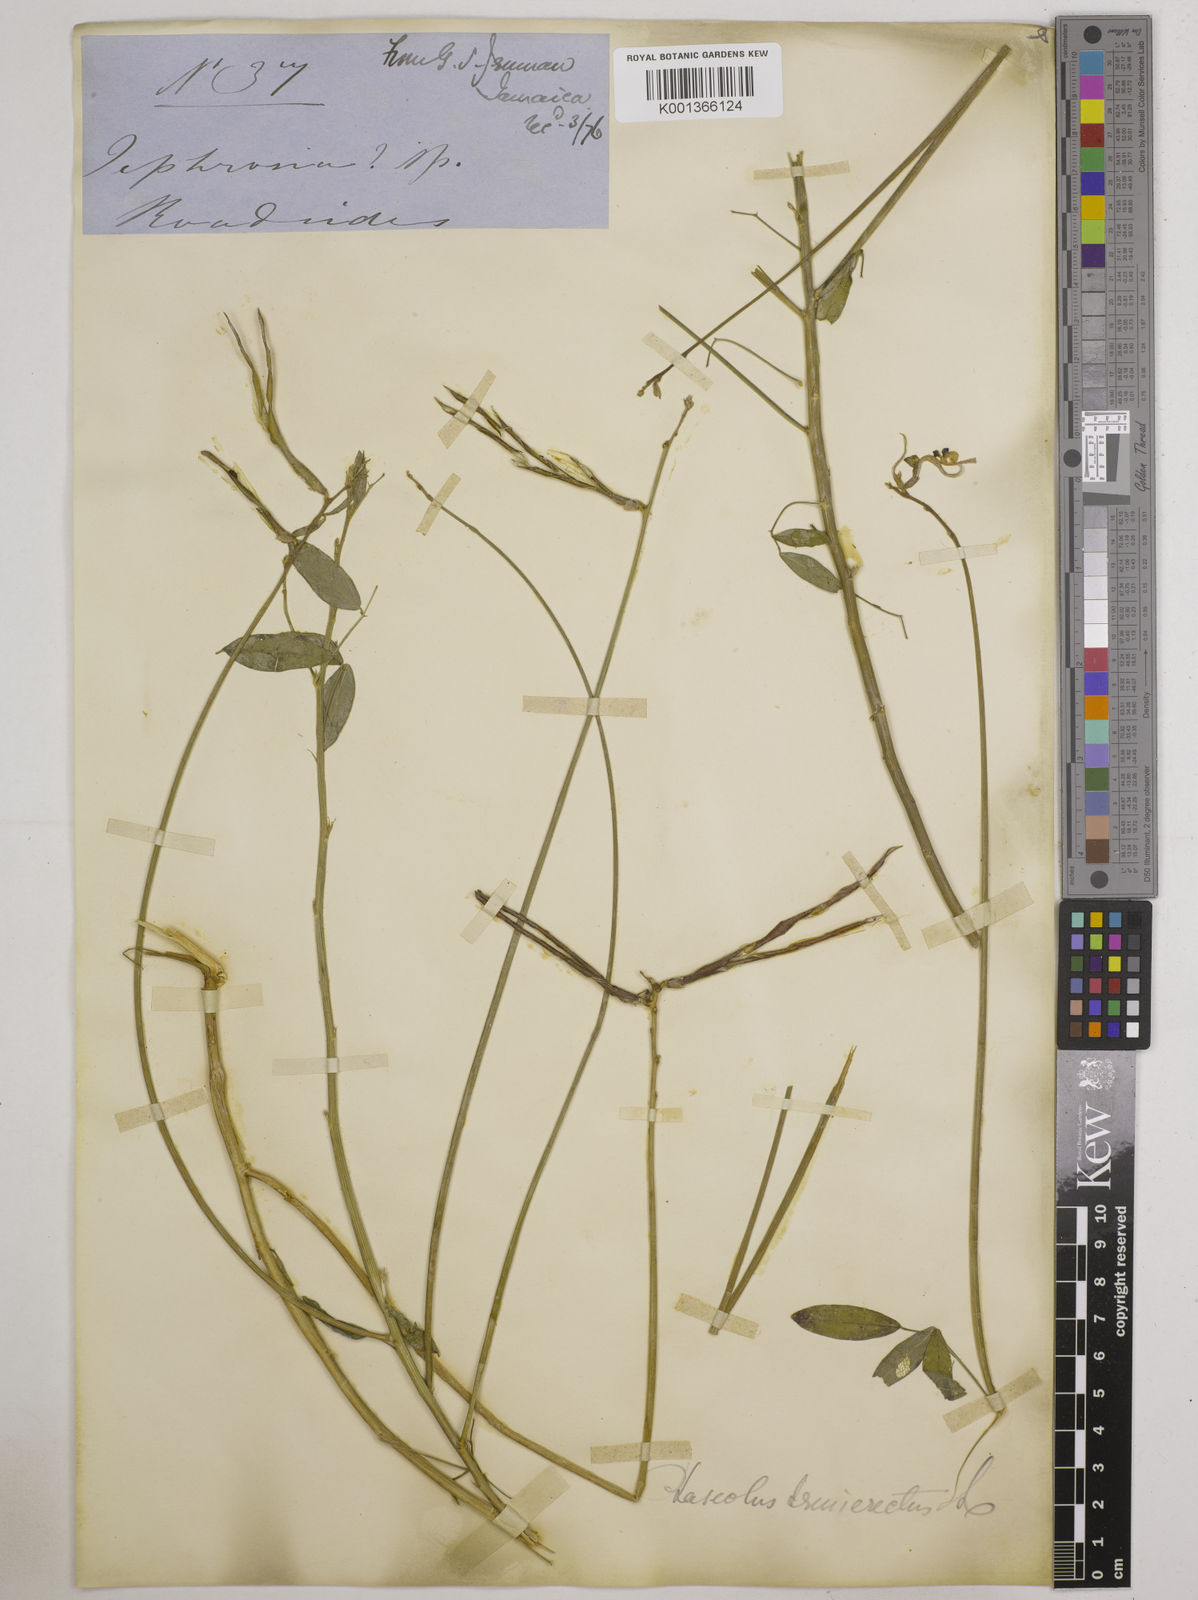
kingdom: Plantae
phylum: Tracheophyta
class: Magnoliopsida
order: Fabales
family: Fabaceae
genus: Macroptilium
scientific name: Macroptilium lathyroides
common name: Wild bushbean
